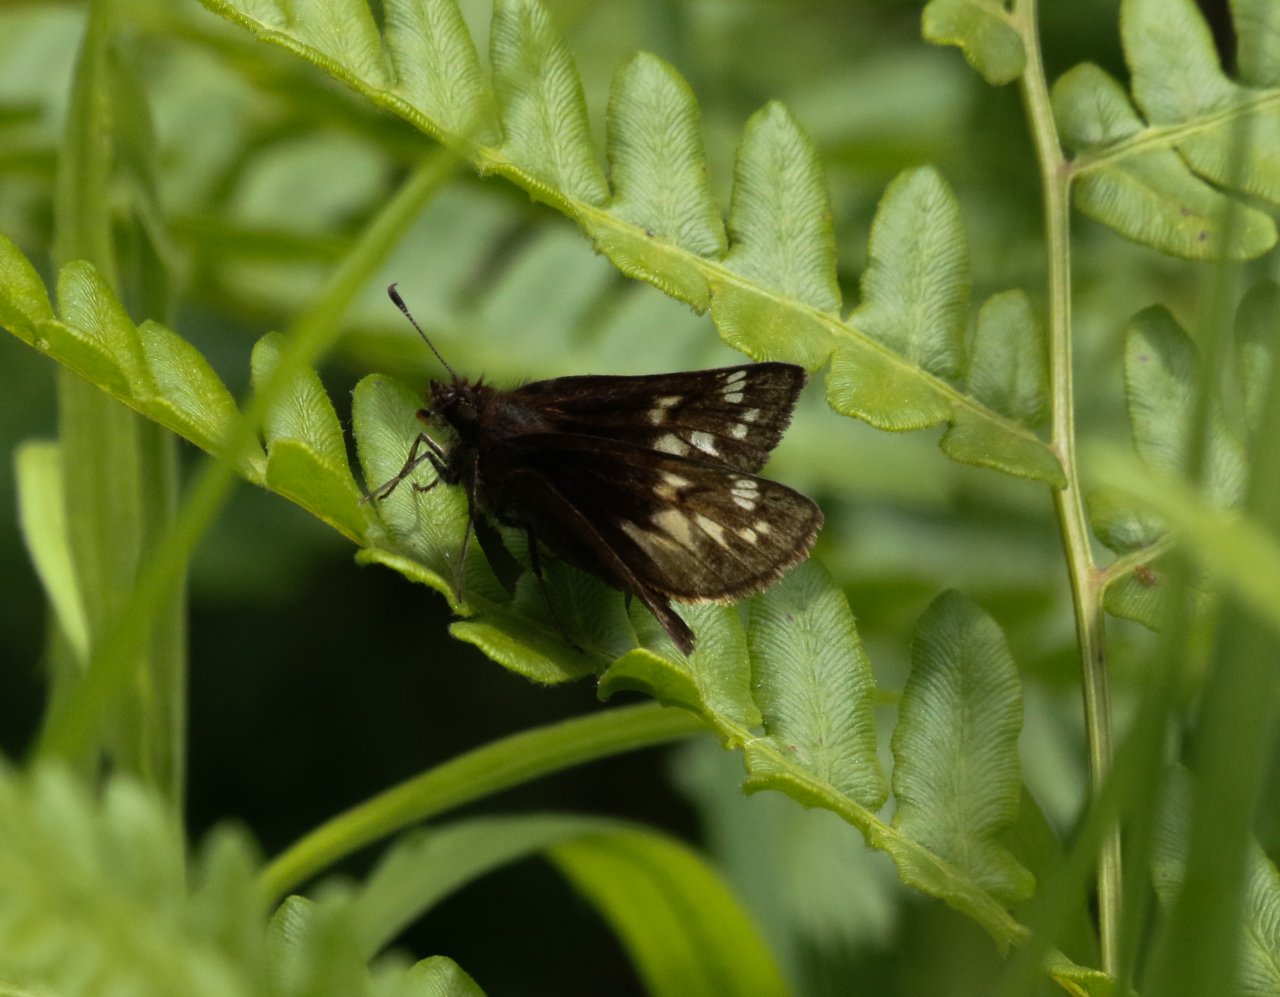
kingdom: Animalia
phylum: Arthropoda
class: Insecta
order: Lepidoptera
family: Hesperiidae
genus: Mastor
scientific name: Mastor hegon
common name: Pepper and Salt Skipper
